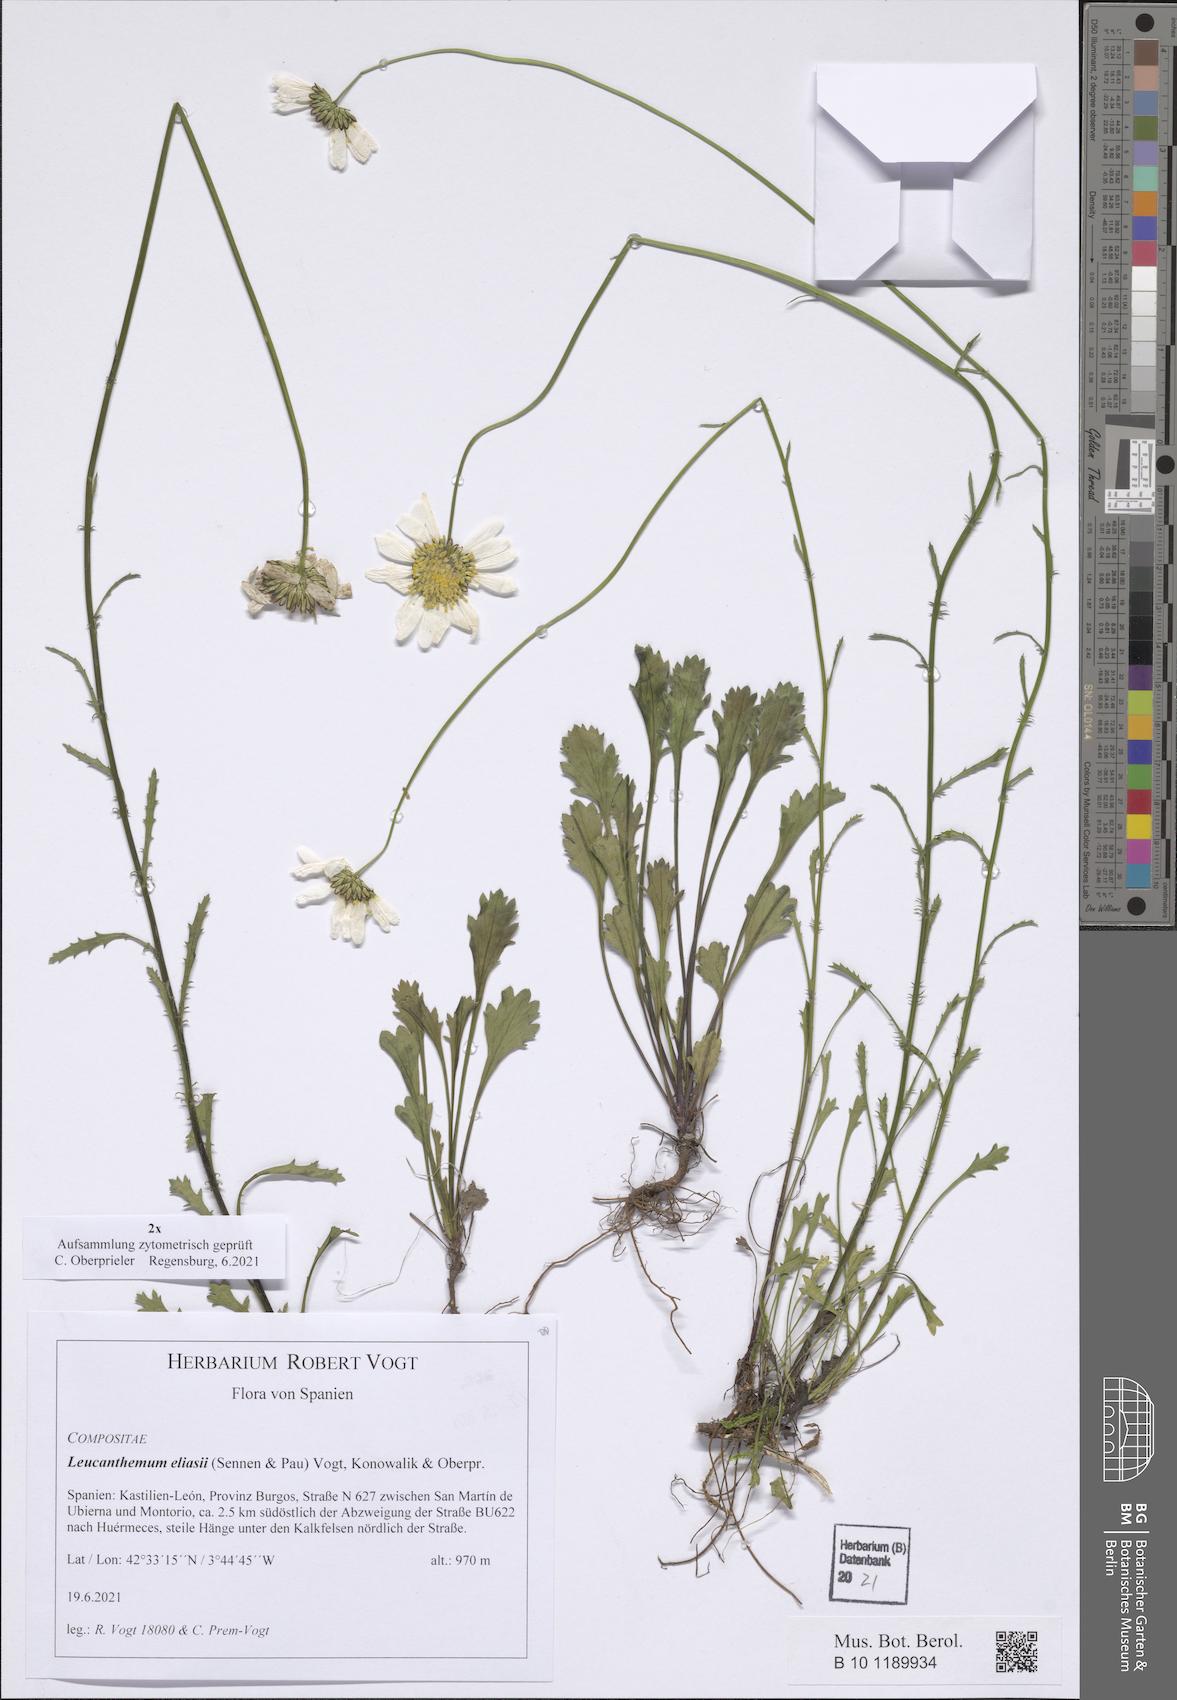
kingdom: Plantae
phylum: Tracheophyta
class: Magnoliopsida
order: Asterales
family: Asteraceae
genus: Leucanthemum
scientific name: Leucanthemum eliasii
